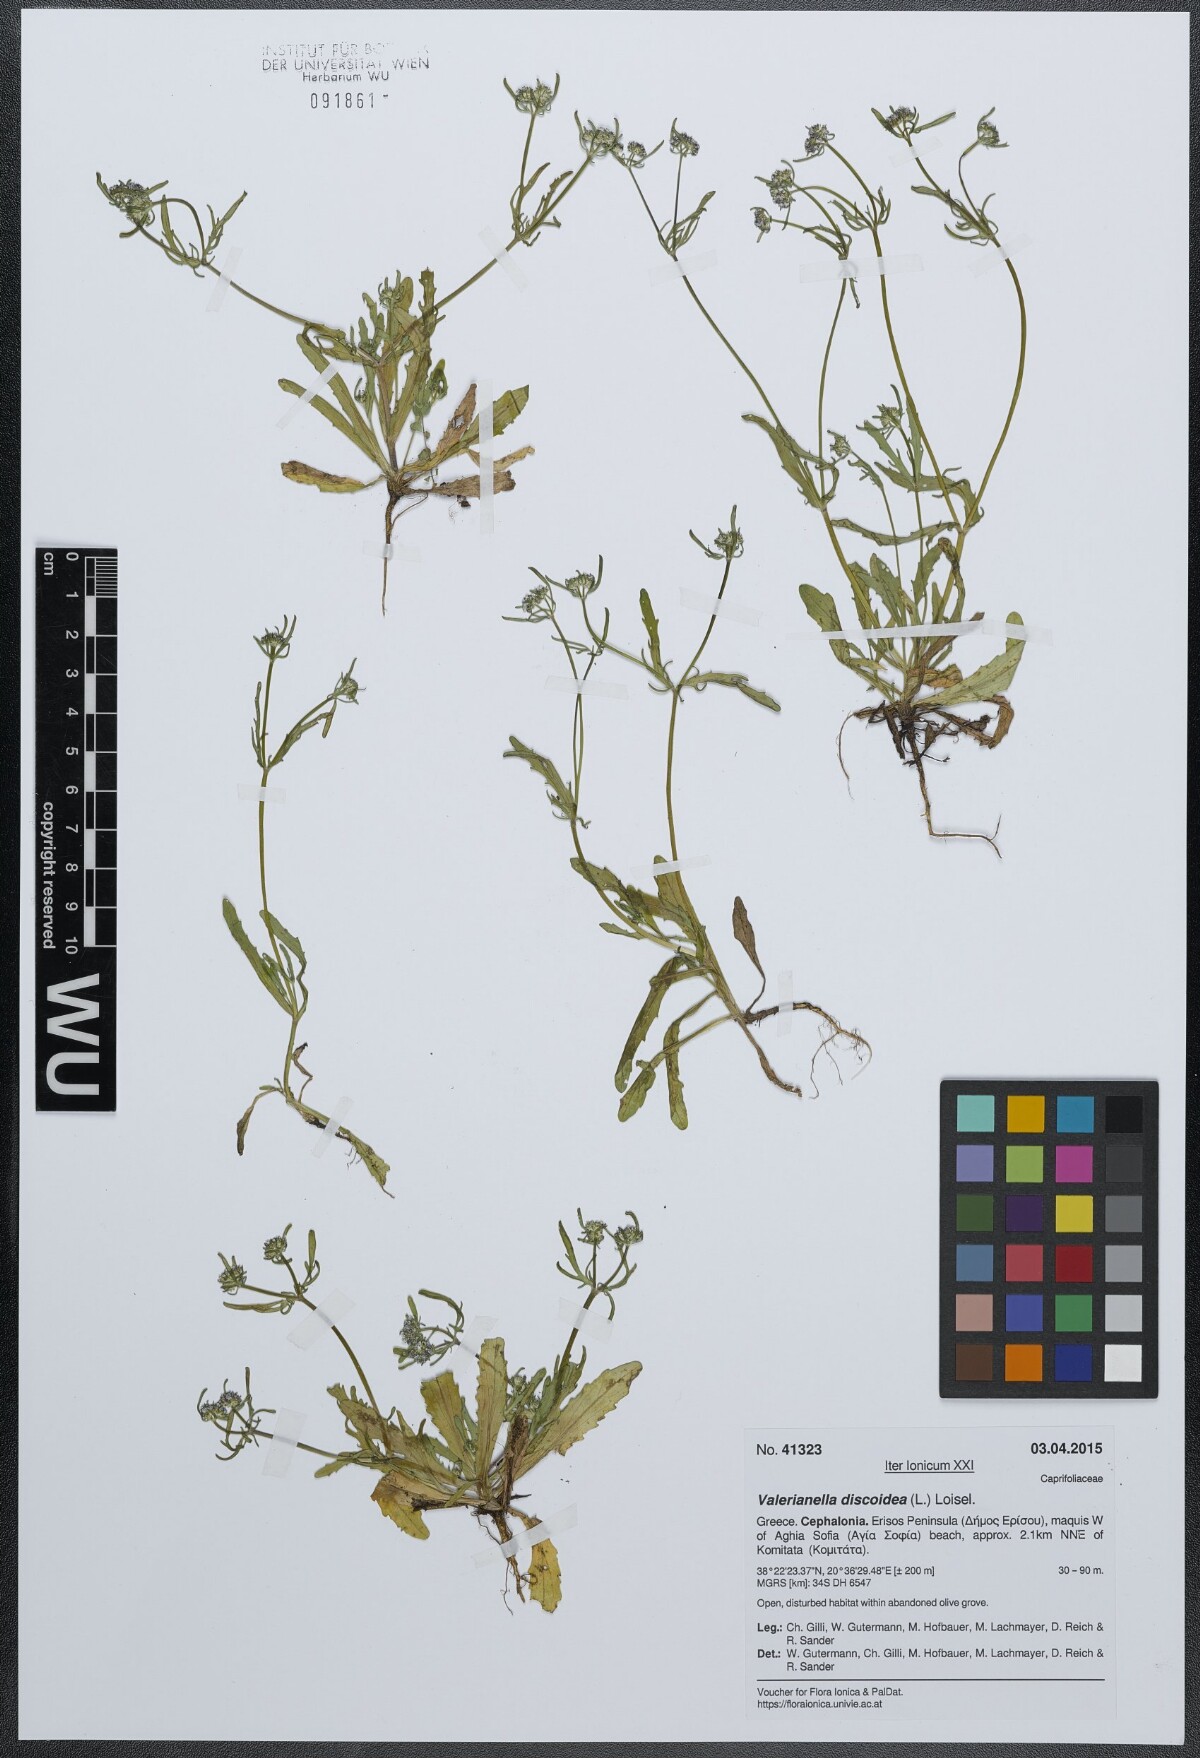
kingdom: Plantae
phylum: Tracheophyta
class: Magnoliopsida
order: Dipsacales
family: Caprifoliaceae
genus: Valerianella
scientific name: Valerianella discoidea
